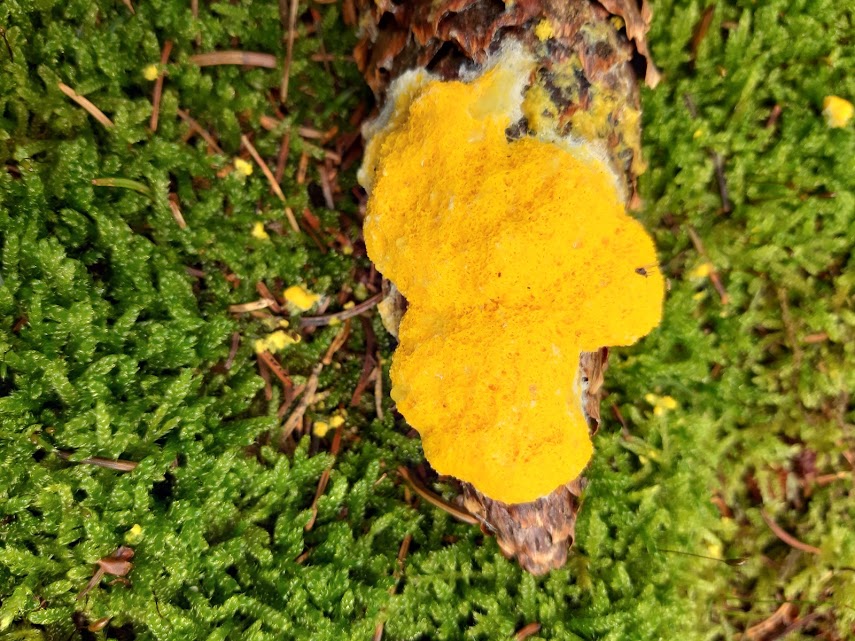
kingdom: Protozoa
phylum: Mycetozoa
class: Myxomycetes
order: Physarales
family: Physaraceae
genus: Fuligo
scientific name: Fuligo septica
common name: gul troldsmør
